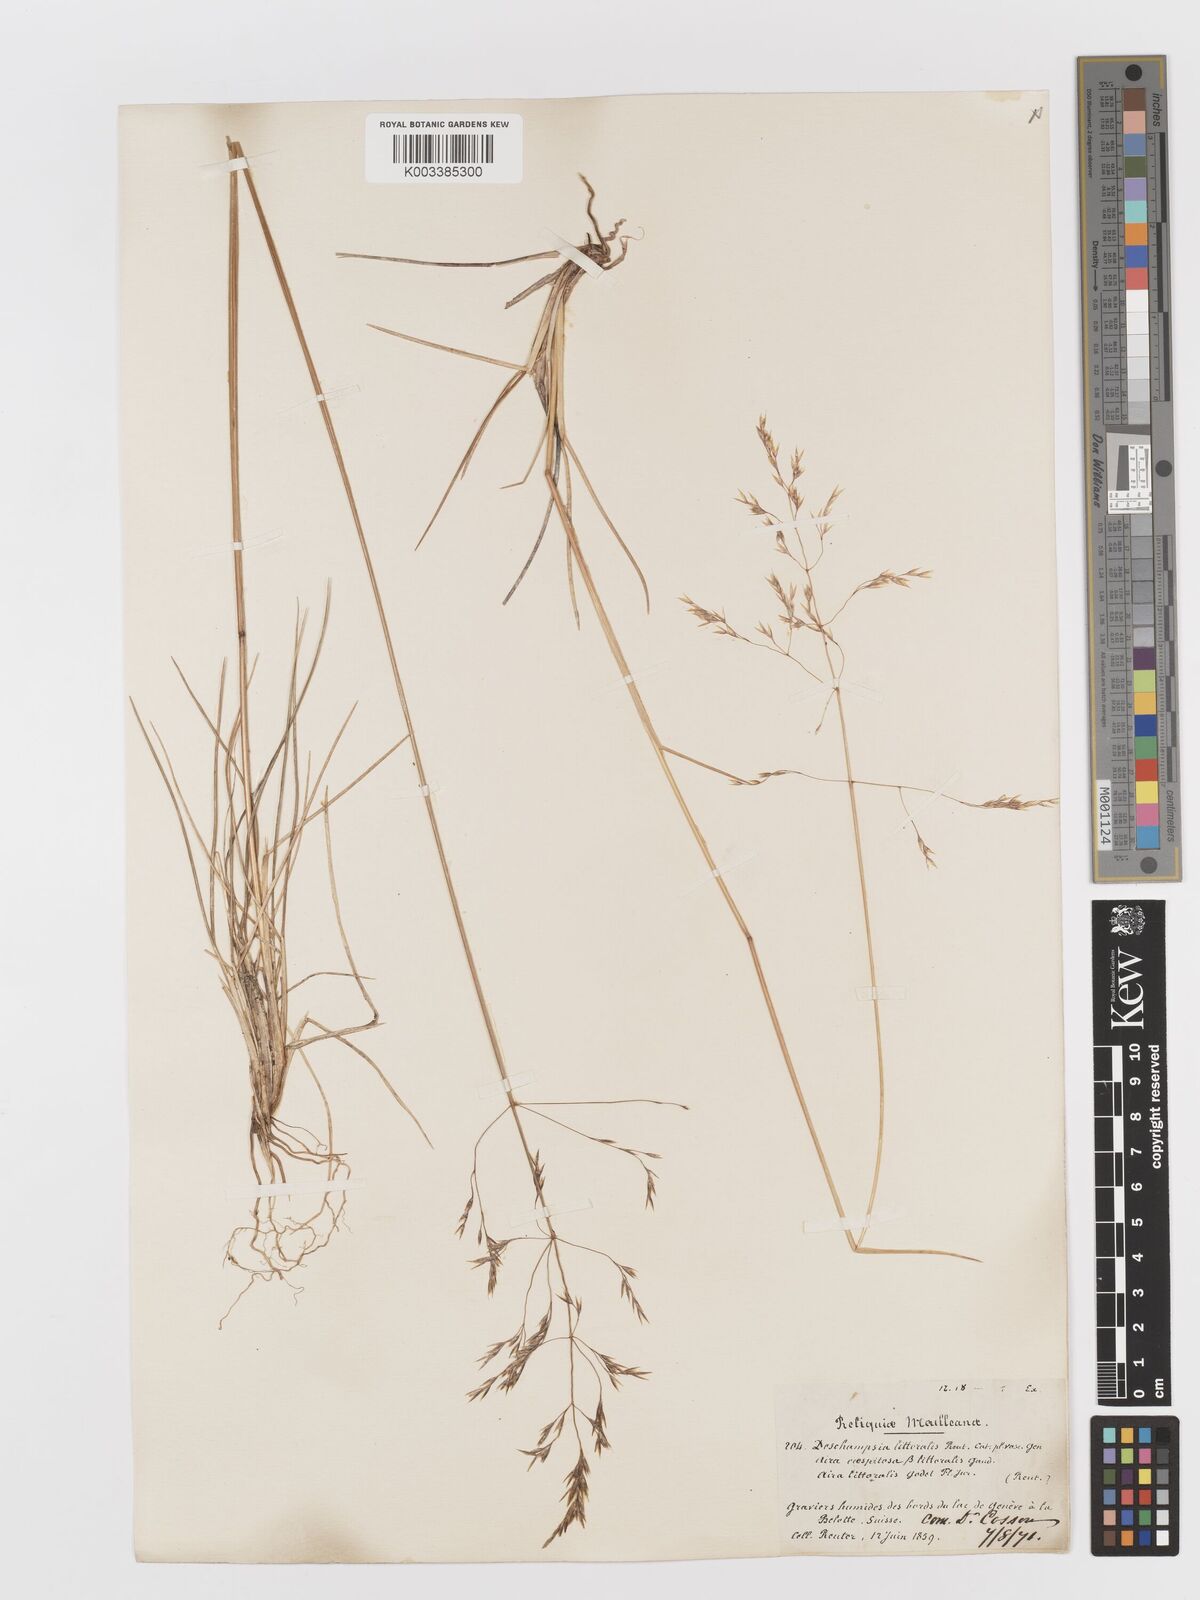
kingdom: Plantae
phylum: Tracheophyta
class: Liliopsida
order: Poales
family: Poaceae
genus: Deschampsia
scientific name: Deschampsia cespitosa
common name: Tufted hair-grass
